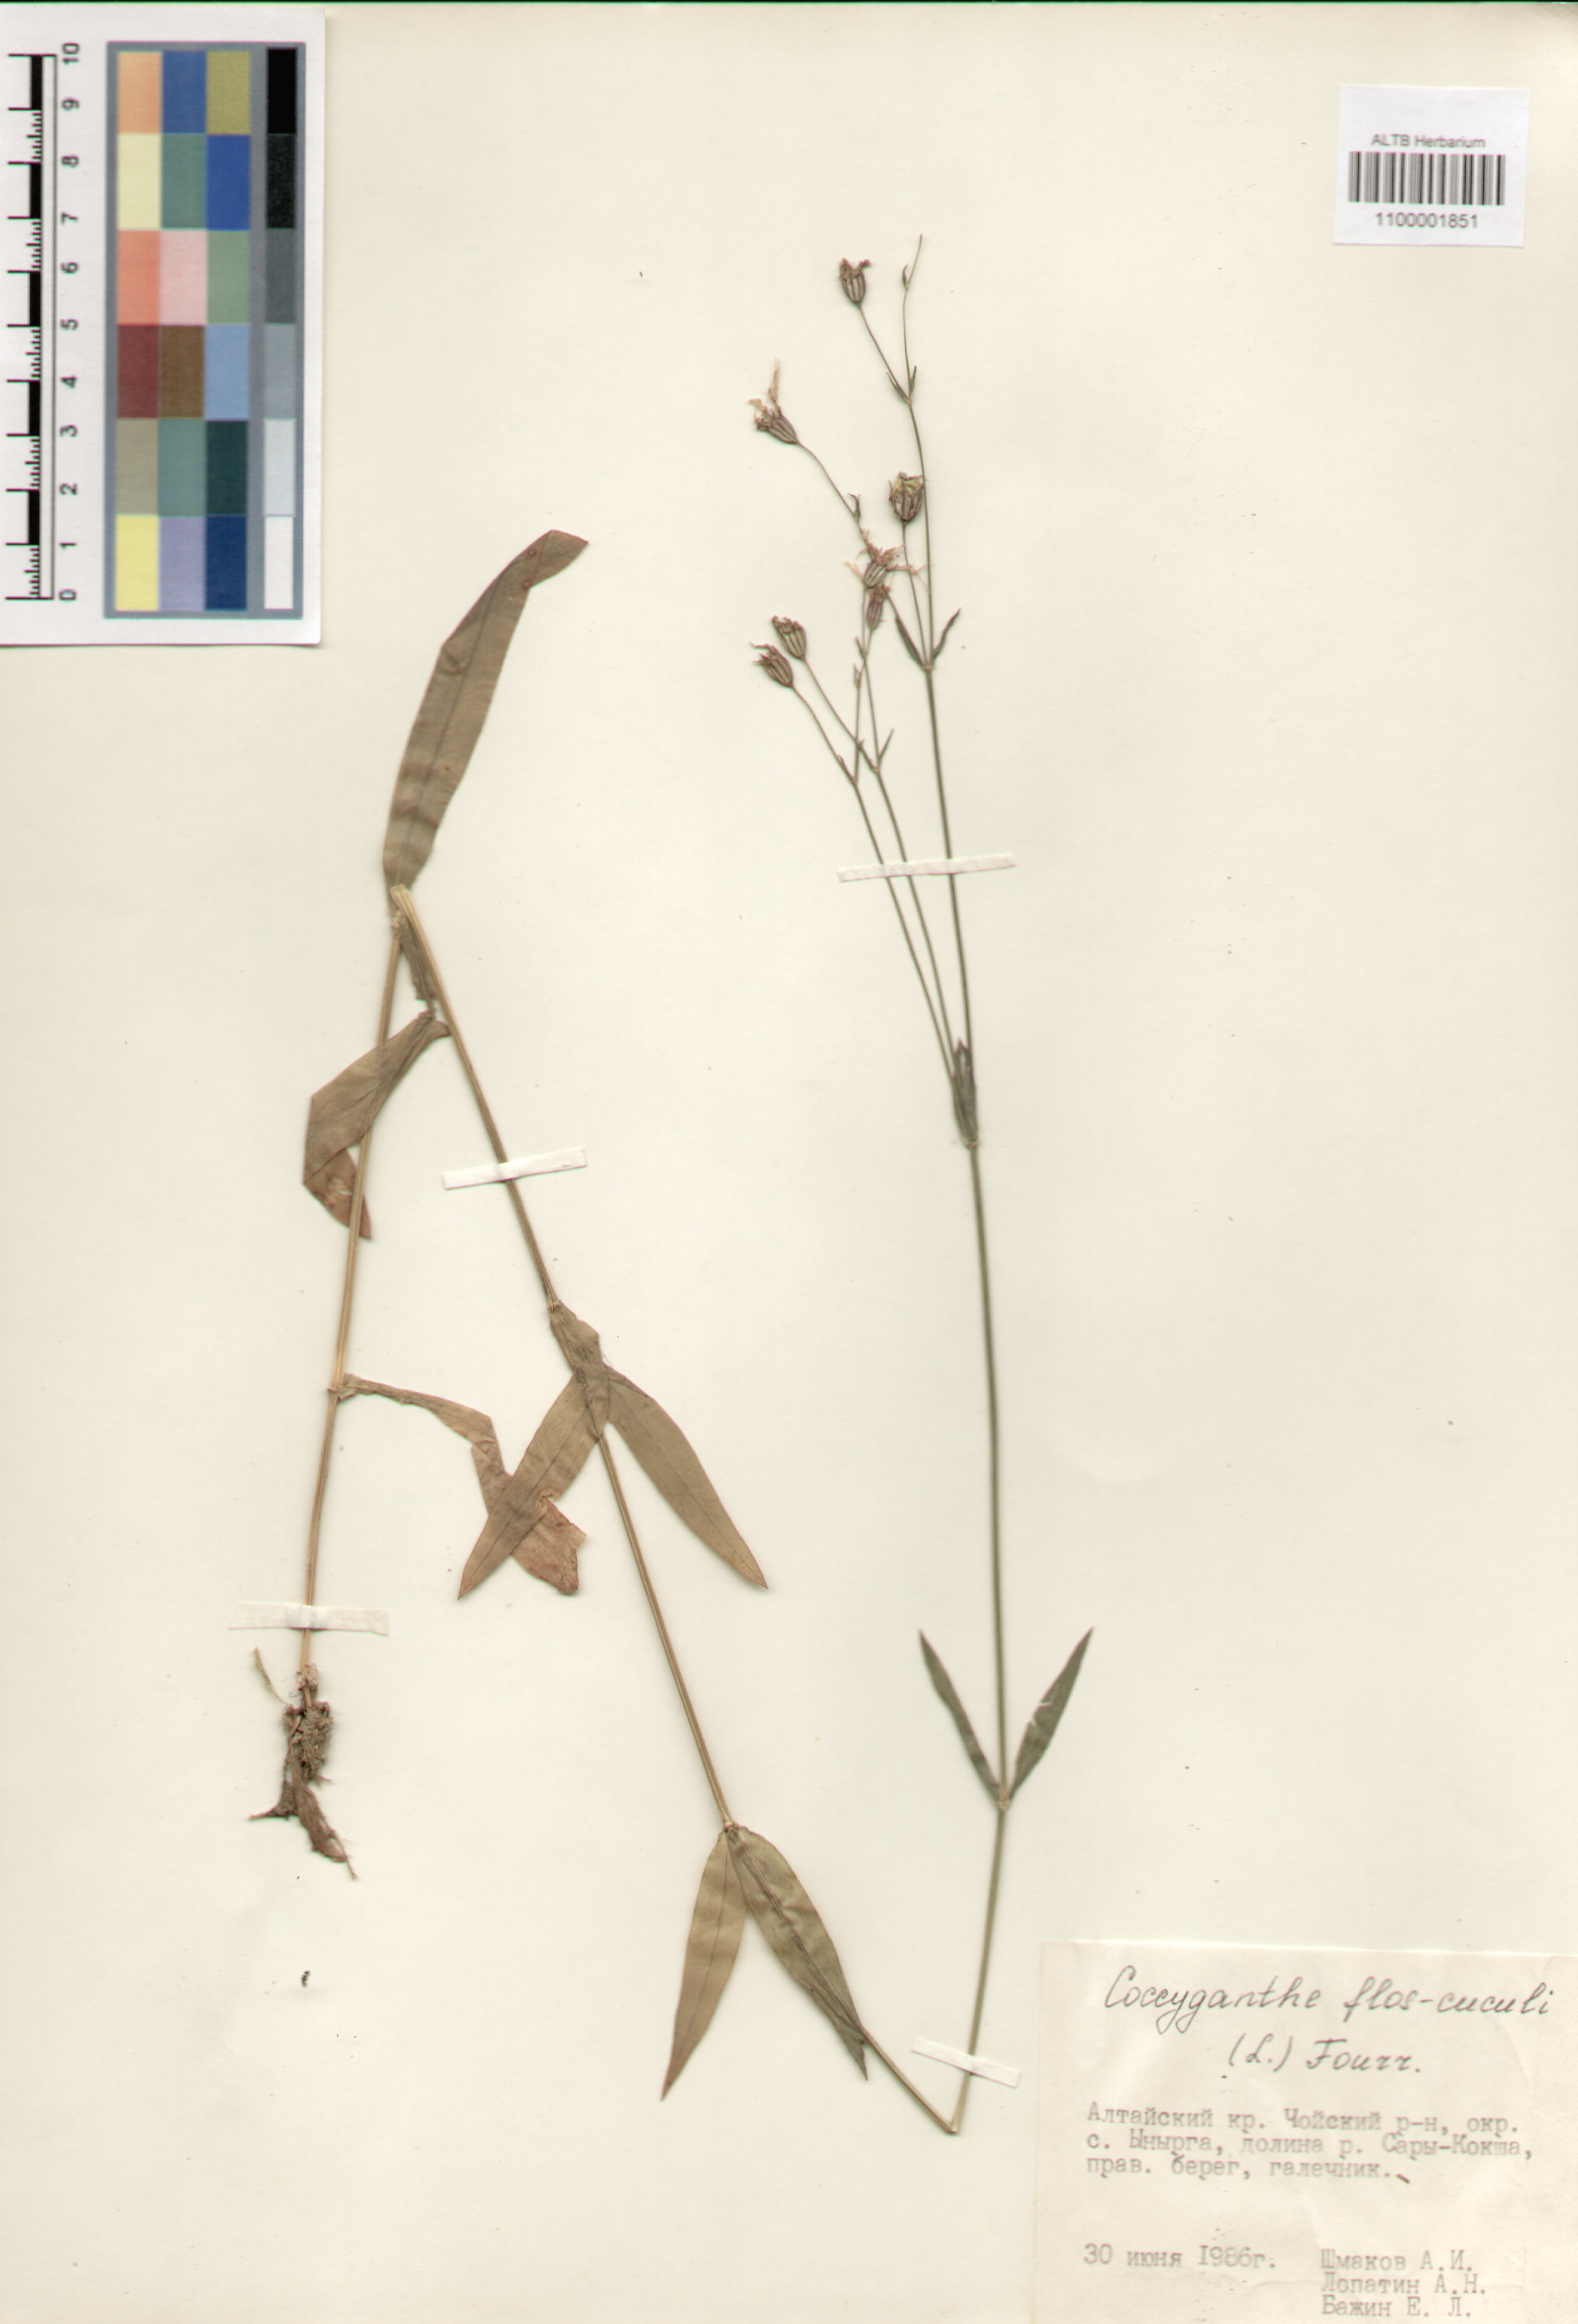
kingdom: Plantae
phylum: Tracheophyta
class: Magnoliopsida
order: Caryophyllales
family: Caryophyllaceae
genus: Silene
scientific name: Silene flos-cuculi
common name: Ragged-robin
